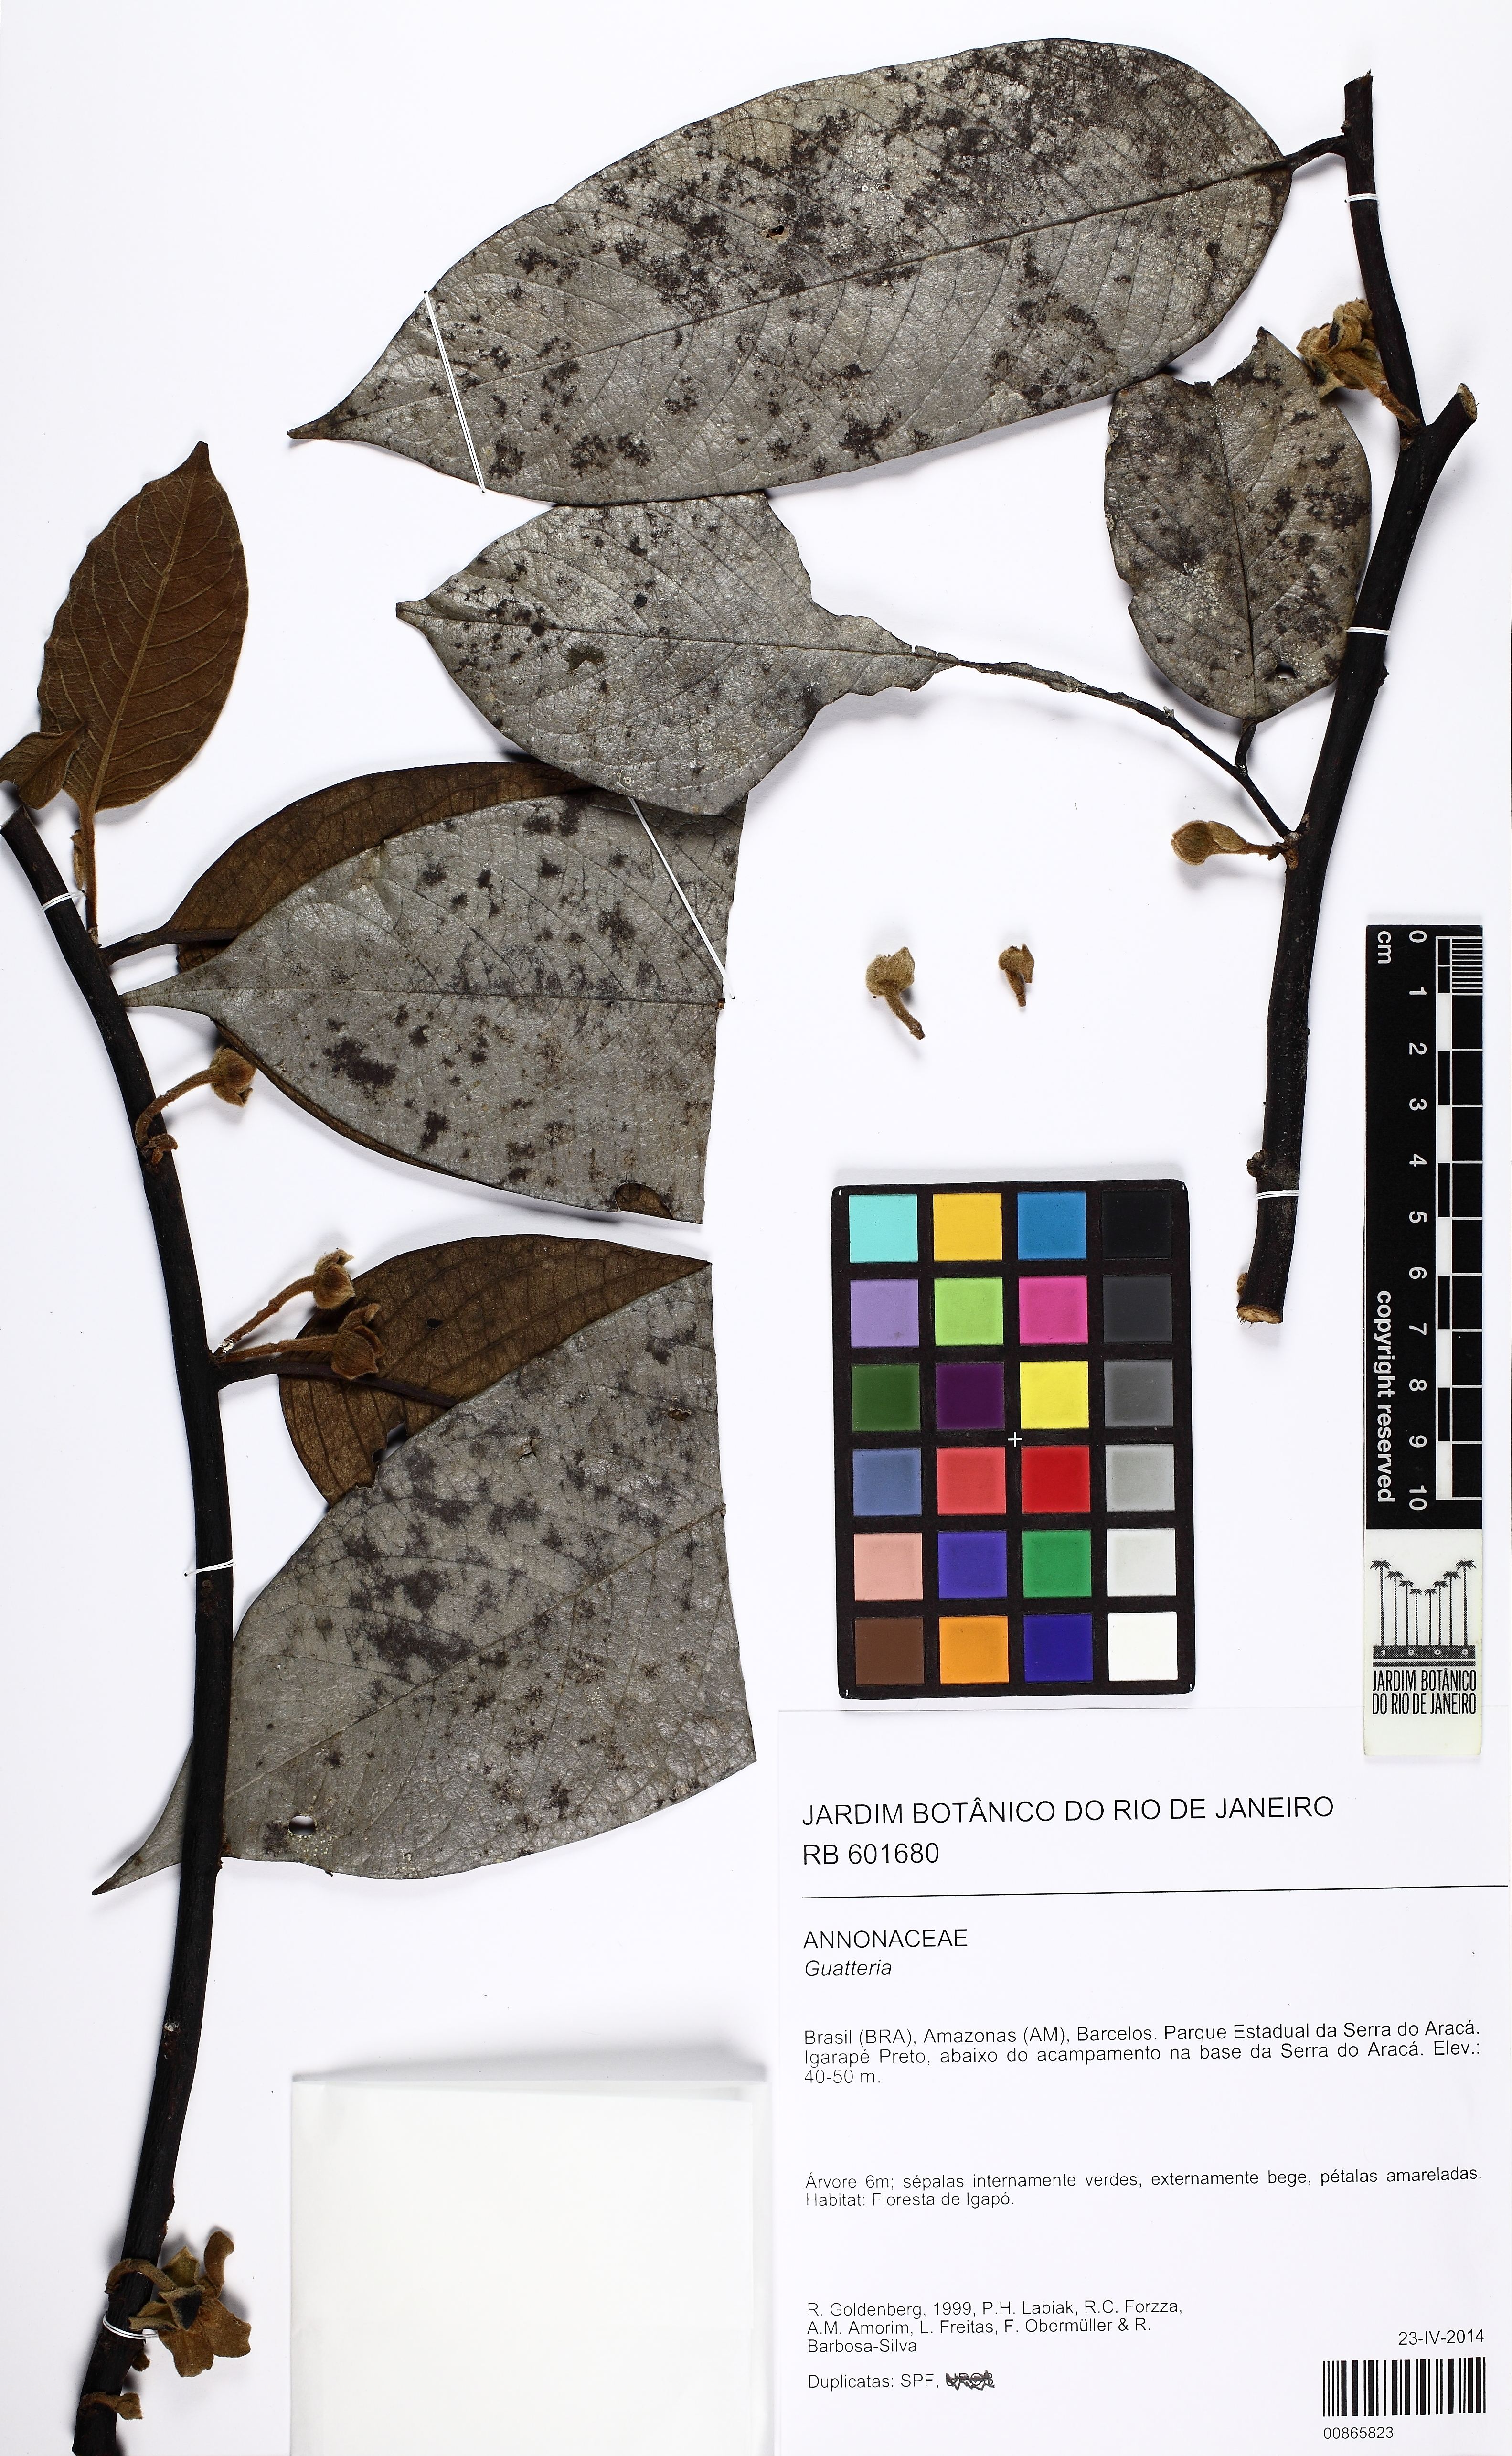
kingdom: Plantae
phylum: Tracheophyta
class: Magnoliopsida
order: Magnoliales
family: Annonaceae
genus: Guatteria
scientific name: Guatteria
